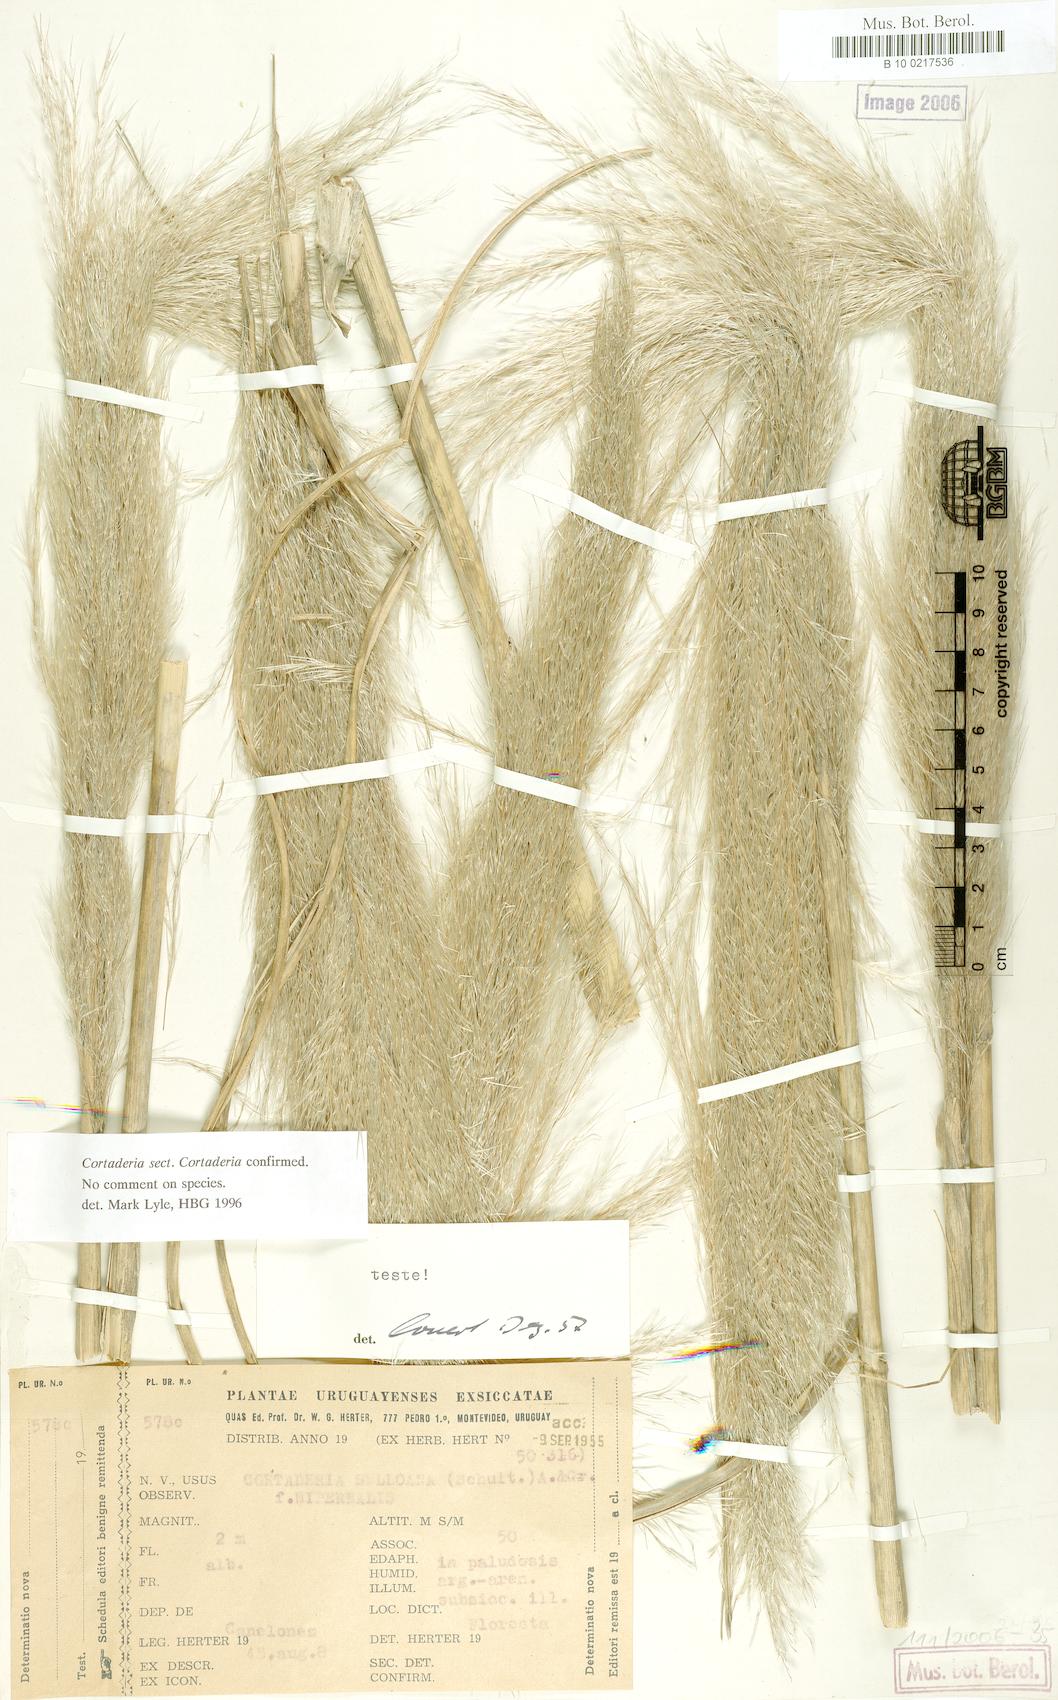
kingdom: Plantae
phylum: Tracheophyta
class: Liliopsida
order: Poales
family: Poaceae
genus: Cortaderia
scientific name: Cortaderia selloana
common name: Uruguayan pampas grass
